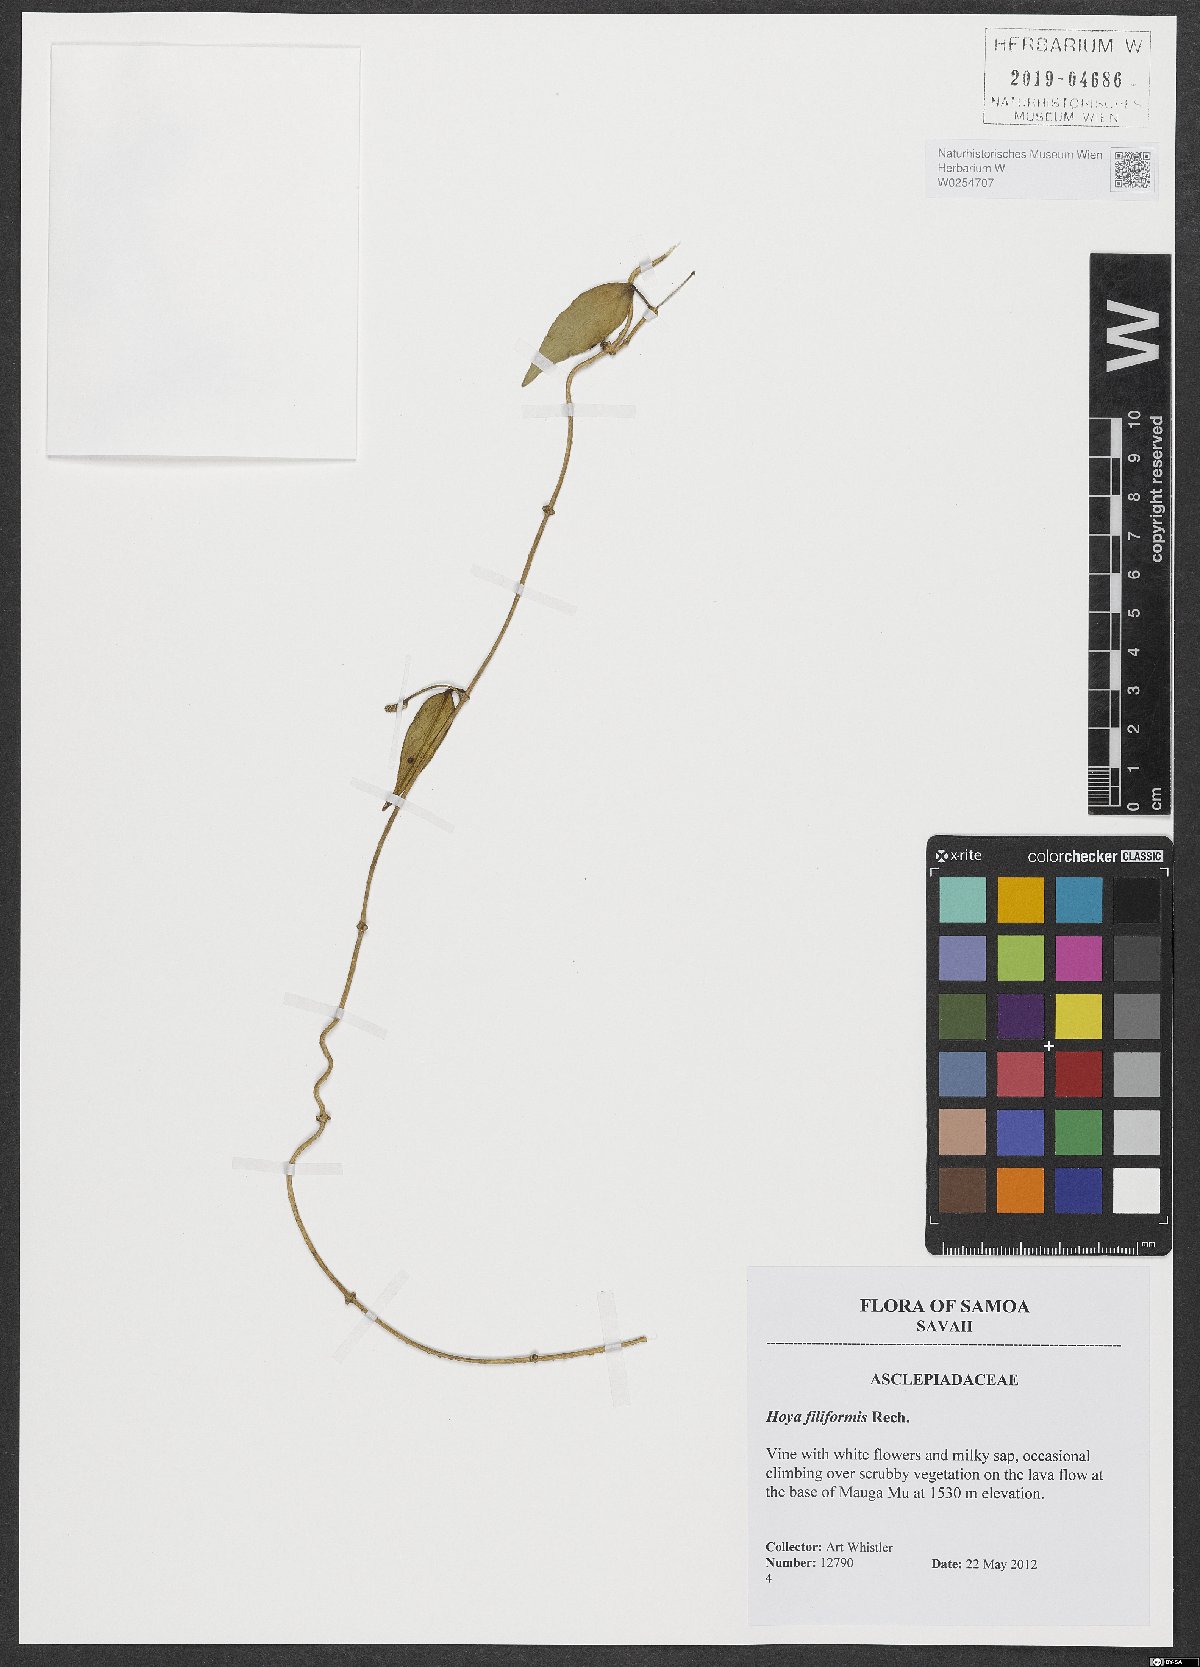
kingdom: Plantae
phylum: Tracheophyta
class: Magnoliopsida
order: Gentianales
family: Apocynaceae
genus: Hoya
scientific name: Hoya filiformis
